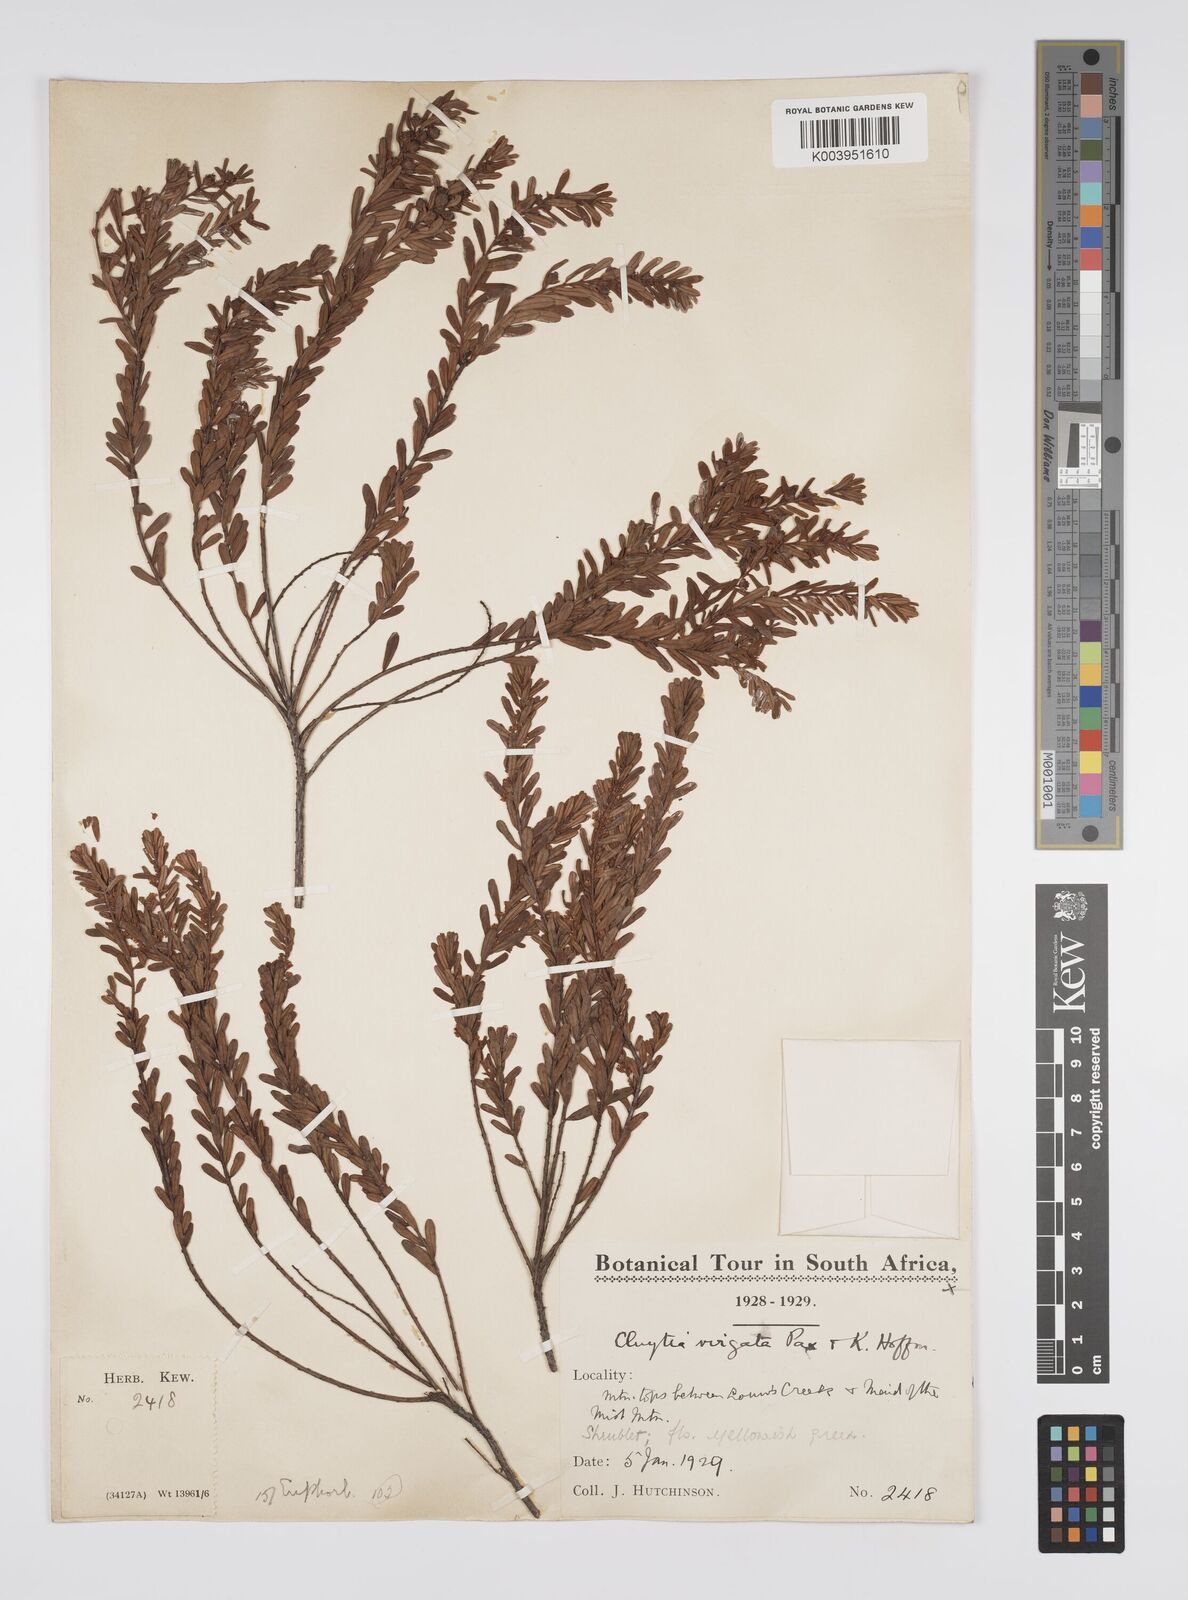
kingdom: Plantae
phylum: Tracheophyta
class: Magnoliopsida
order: Malpighiales
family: Peraceae
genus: Clutia
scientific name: Clutia virgata
